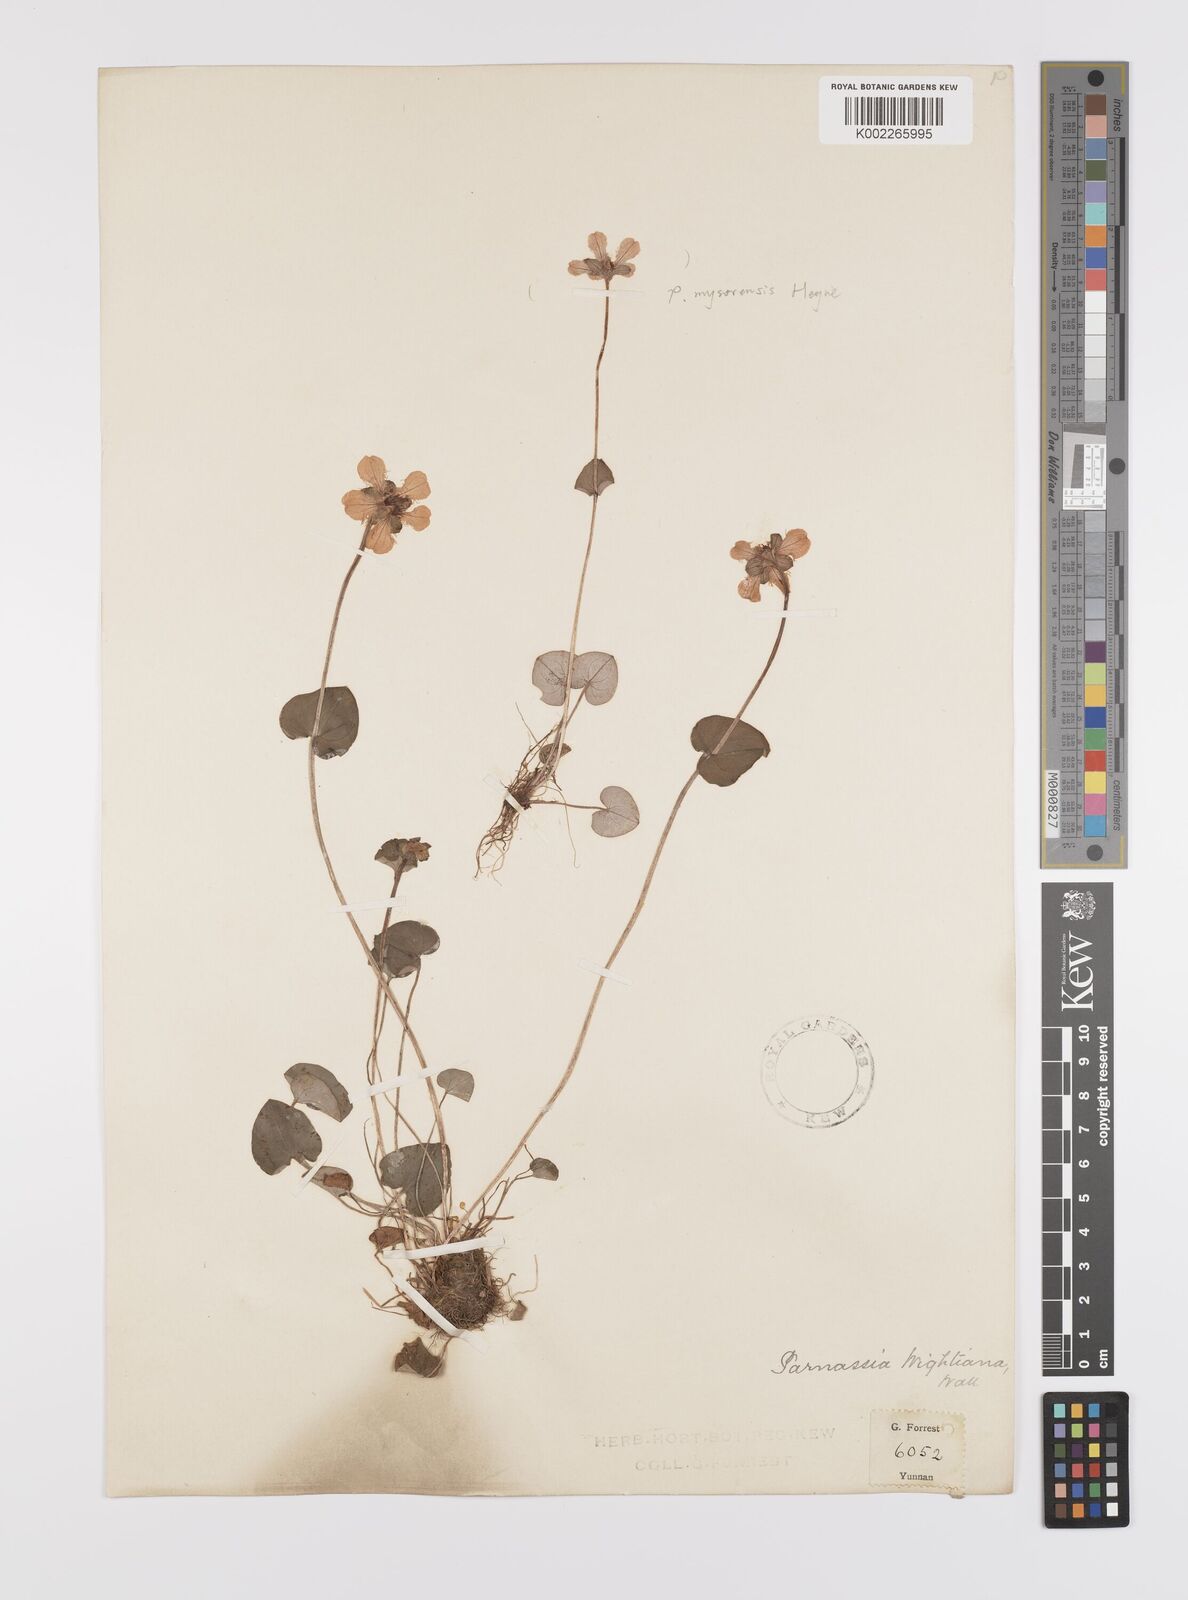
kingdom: Plantae
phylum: Tracheophyta
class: Magnoliopsida
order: Celastrales
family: Parnassiaceae
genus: Parnassia
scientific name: Parnassia wightiana
